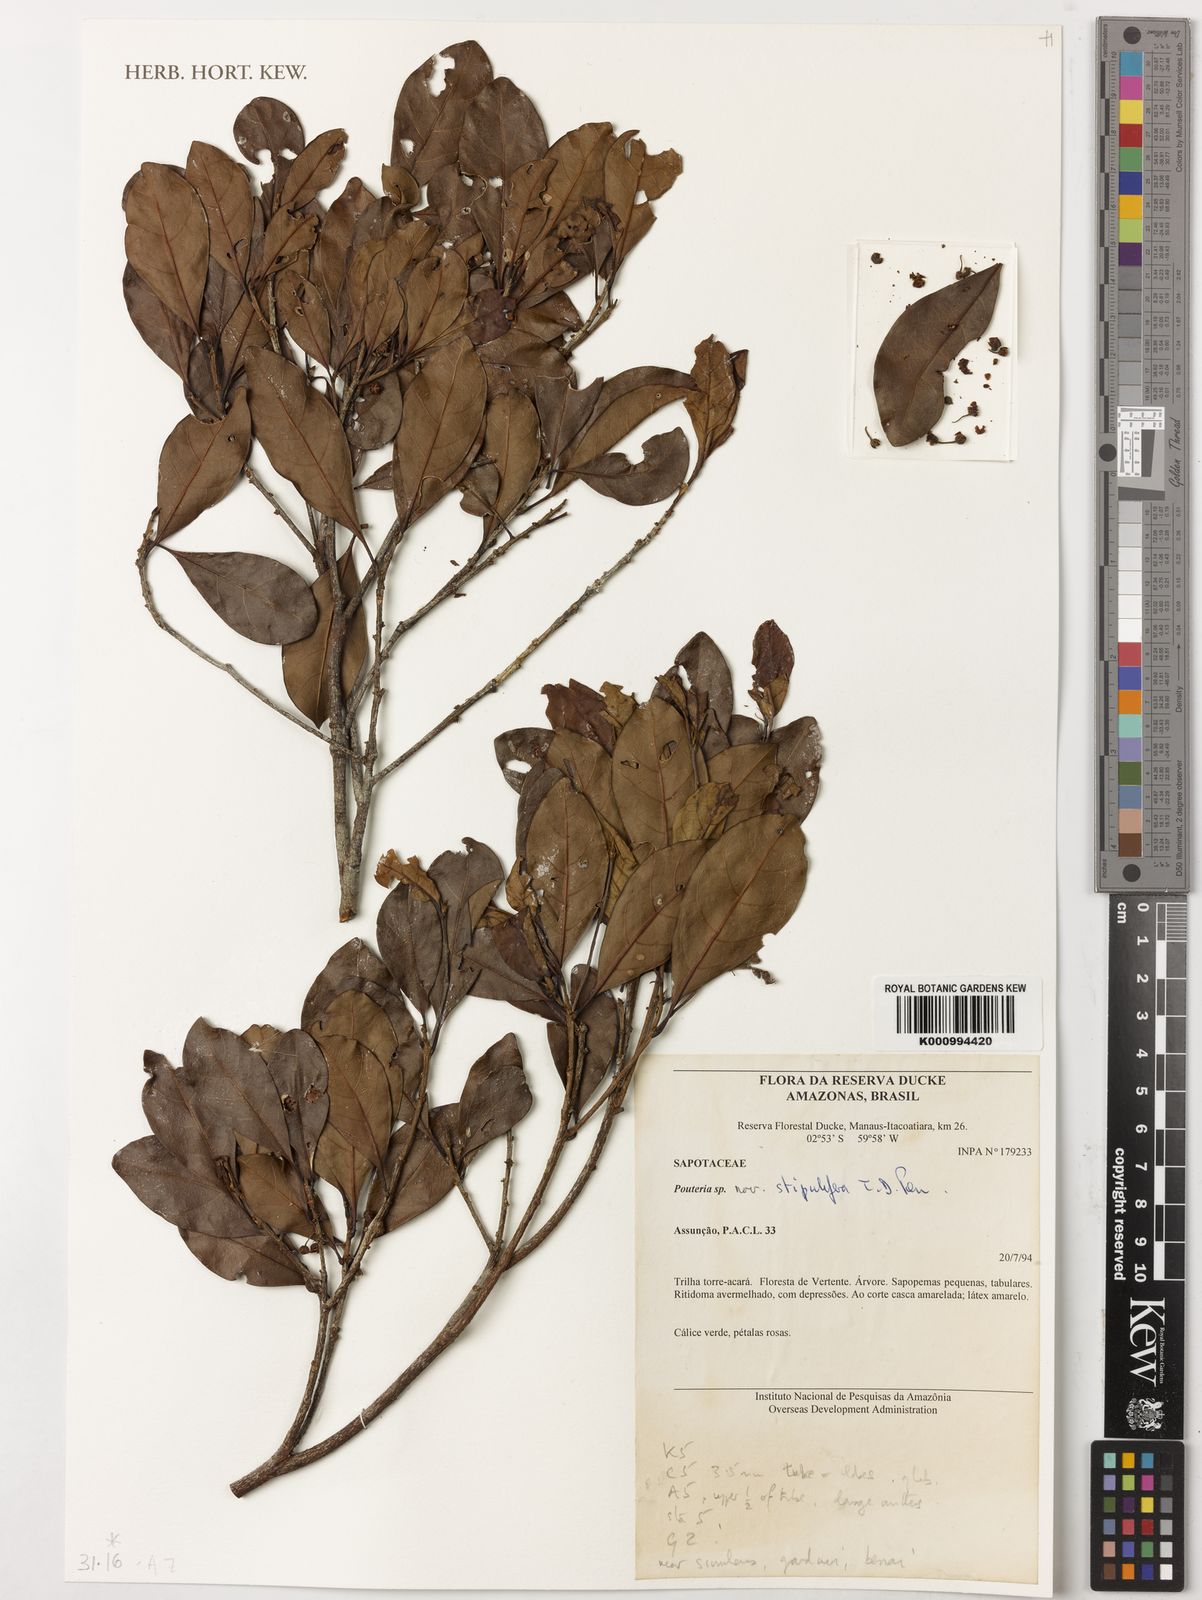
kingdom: Plantae
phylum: Tracheophyta
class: Magnoliopsida
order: Ericales
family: Sapotaceae
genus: Pouteria
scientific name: Pouteria stipulifera
